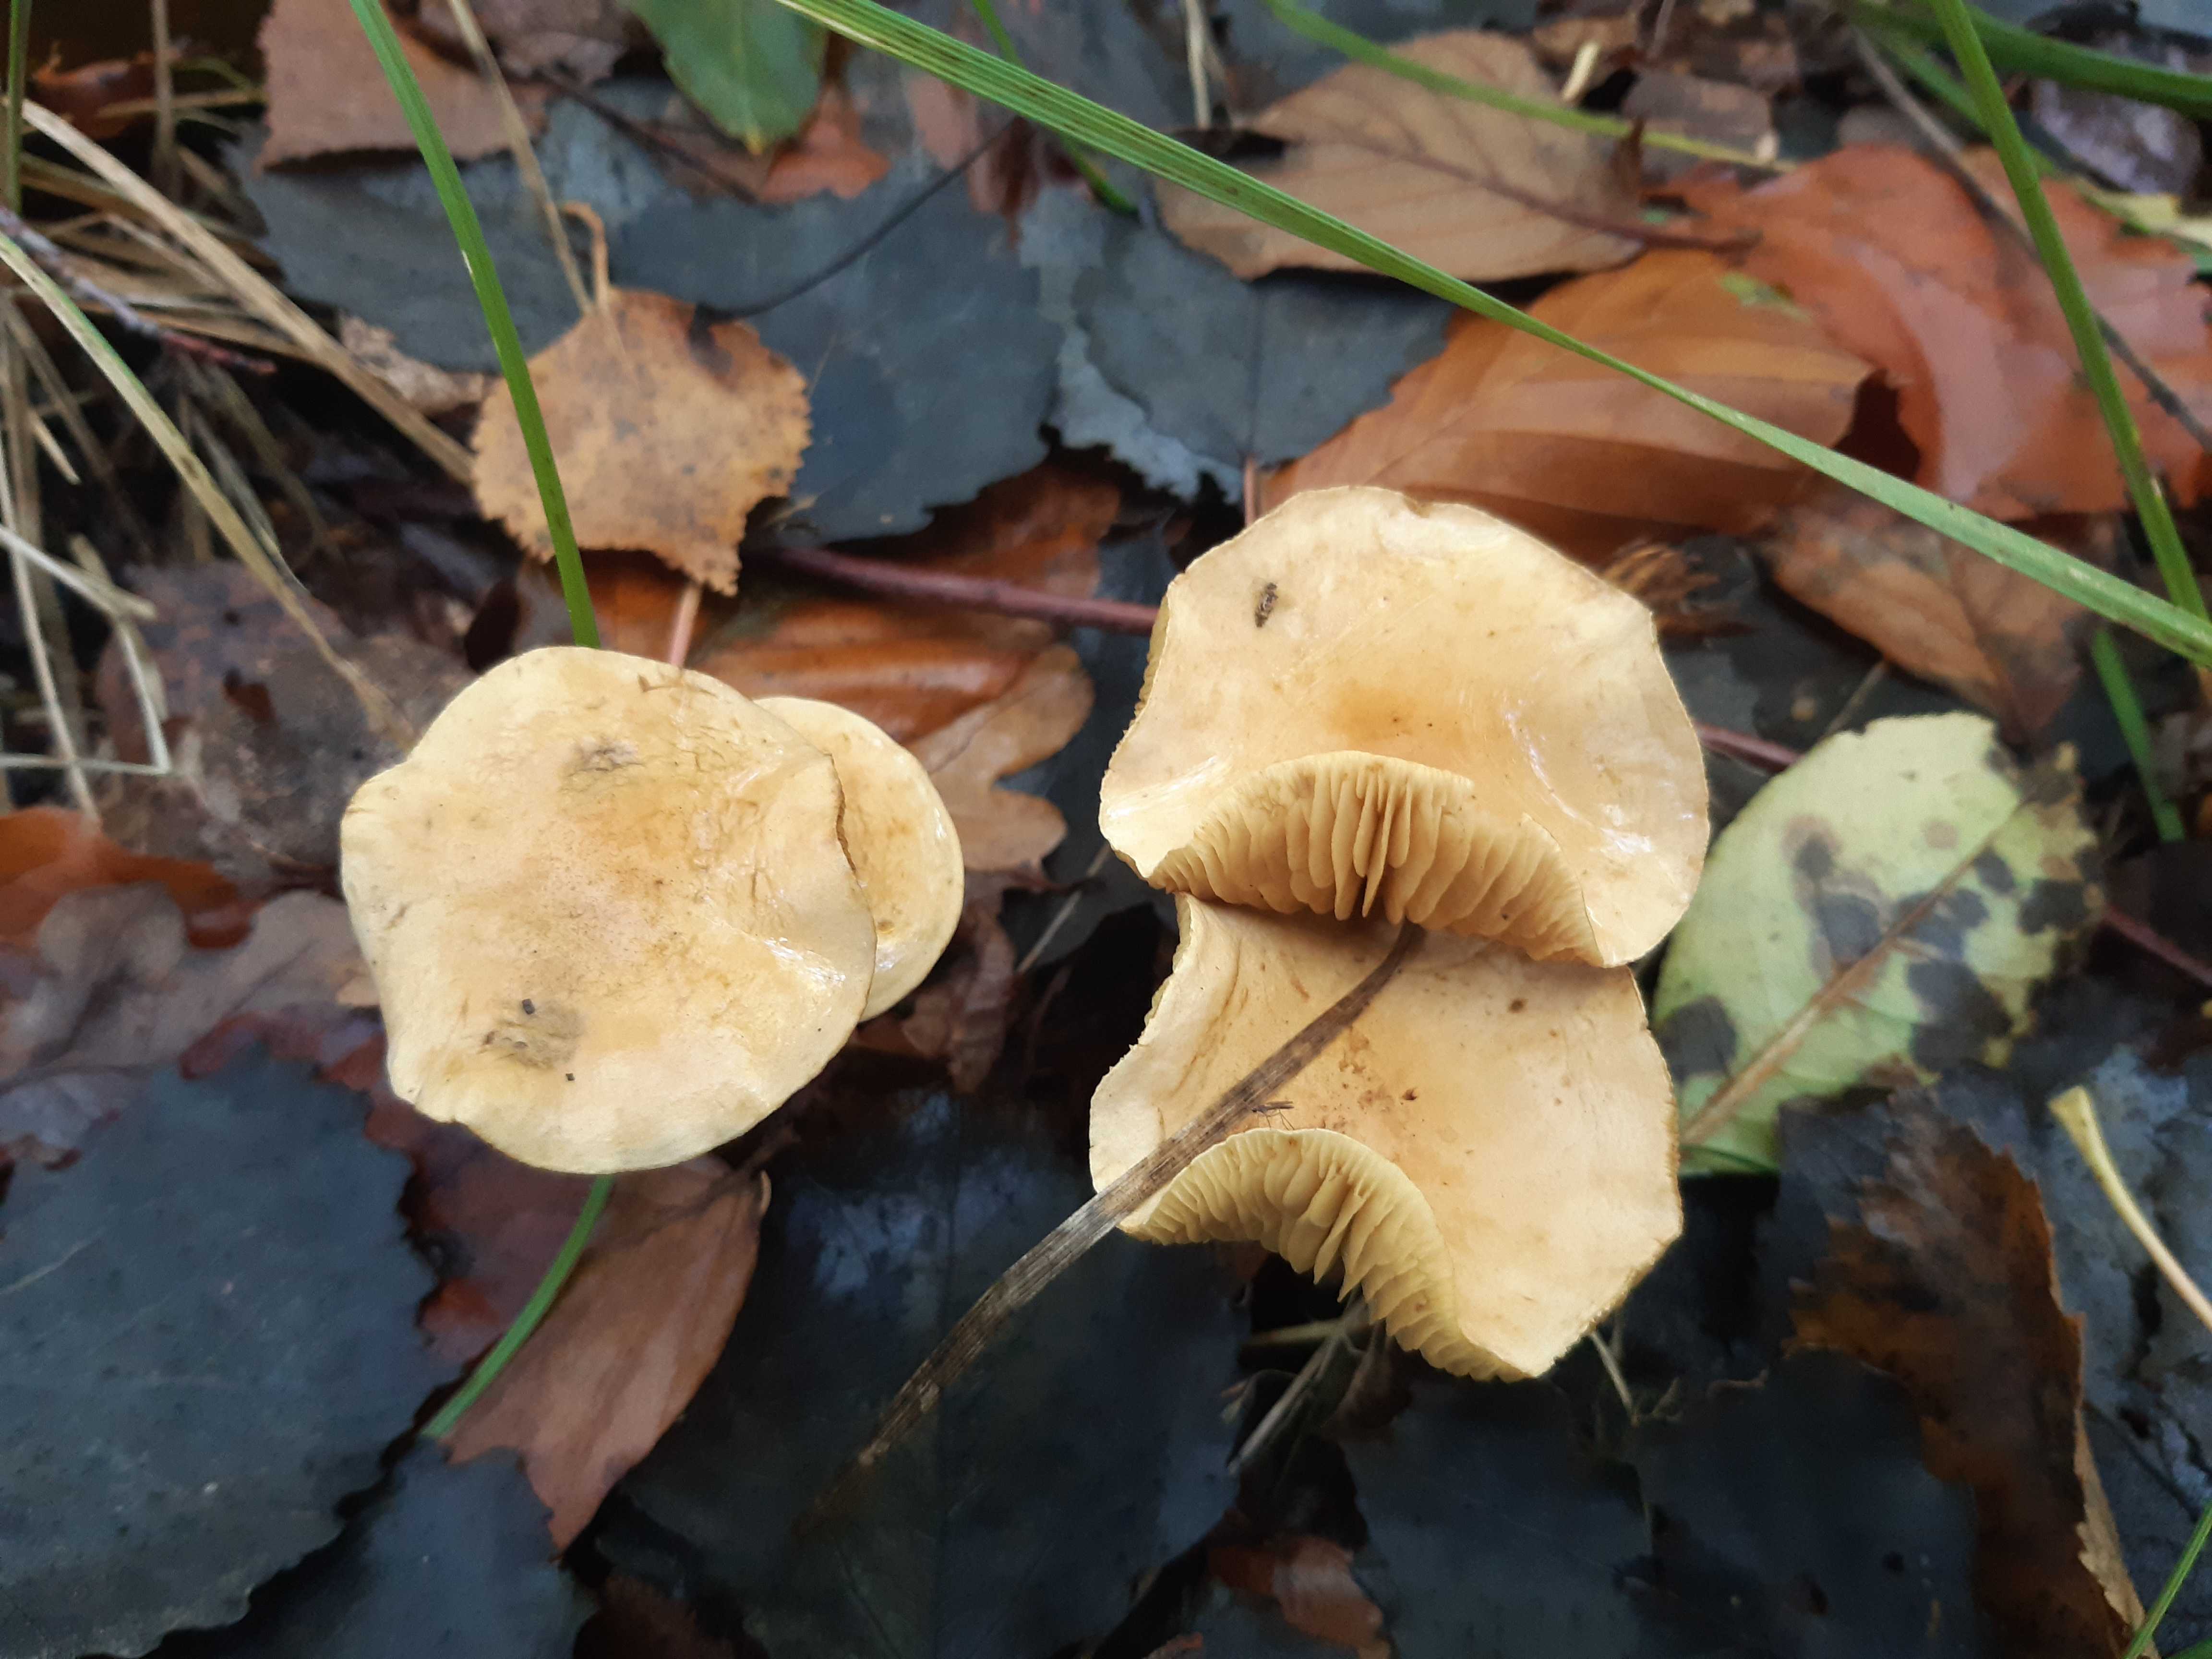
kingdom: Fungi
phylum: Basidiomycota
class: Agaricomycetes
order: Agaricales
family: Tricholomataceae
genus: Tricholoma
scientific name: Tricholoma sulphureum
